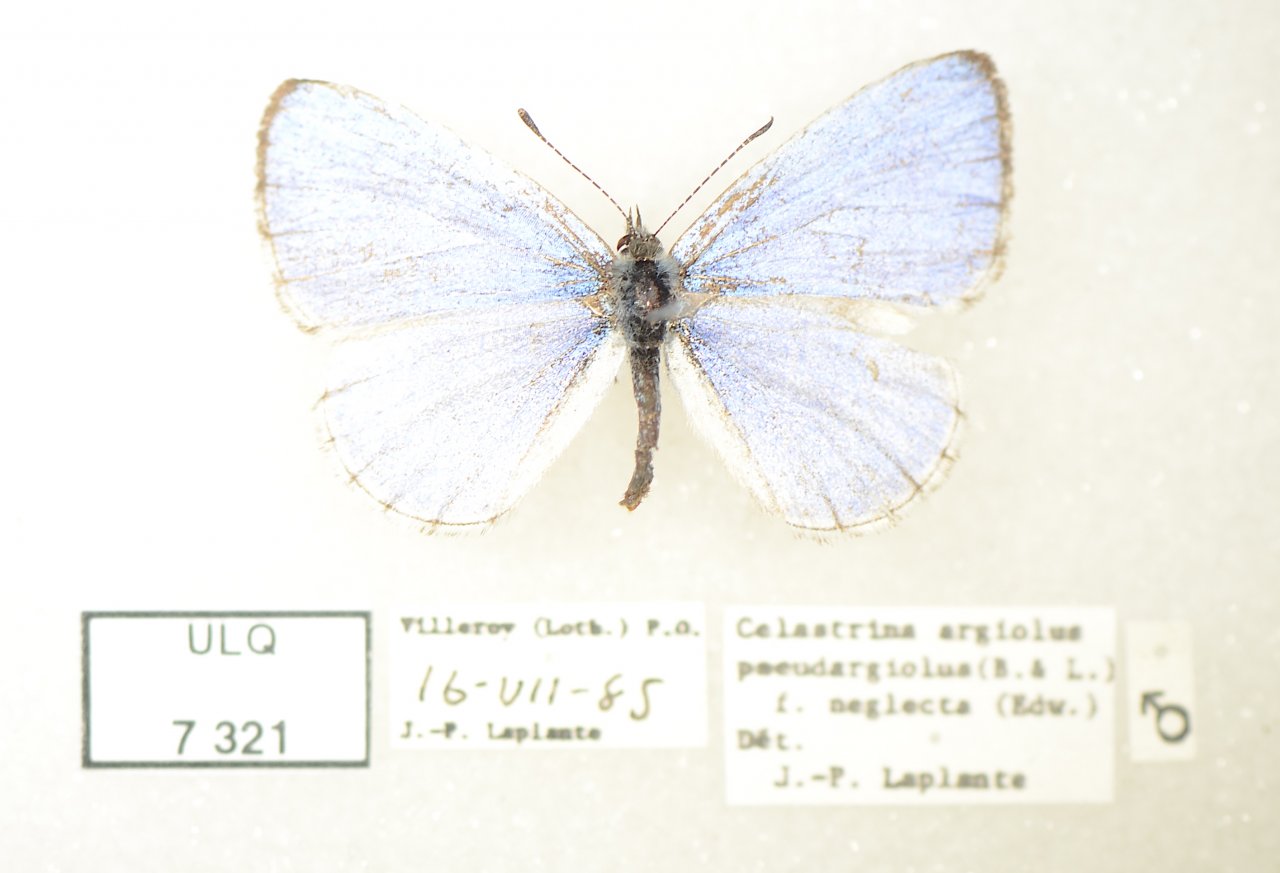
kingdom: Animalia
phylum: Arthropoda
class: Insecta
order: Lepidoptera
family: Lycaenidae
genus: Celastrina
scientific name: Celastrina lucia
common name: Northern Spring Azure
